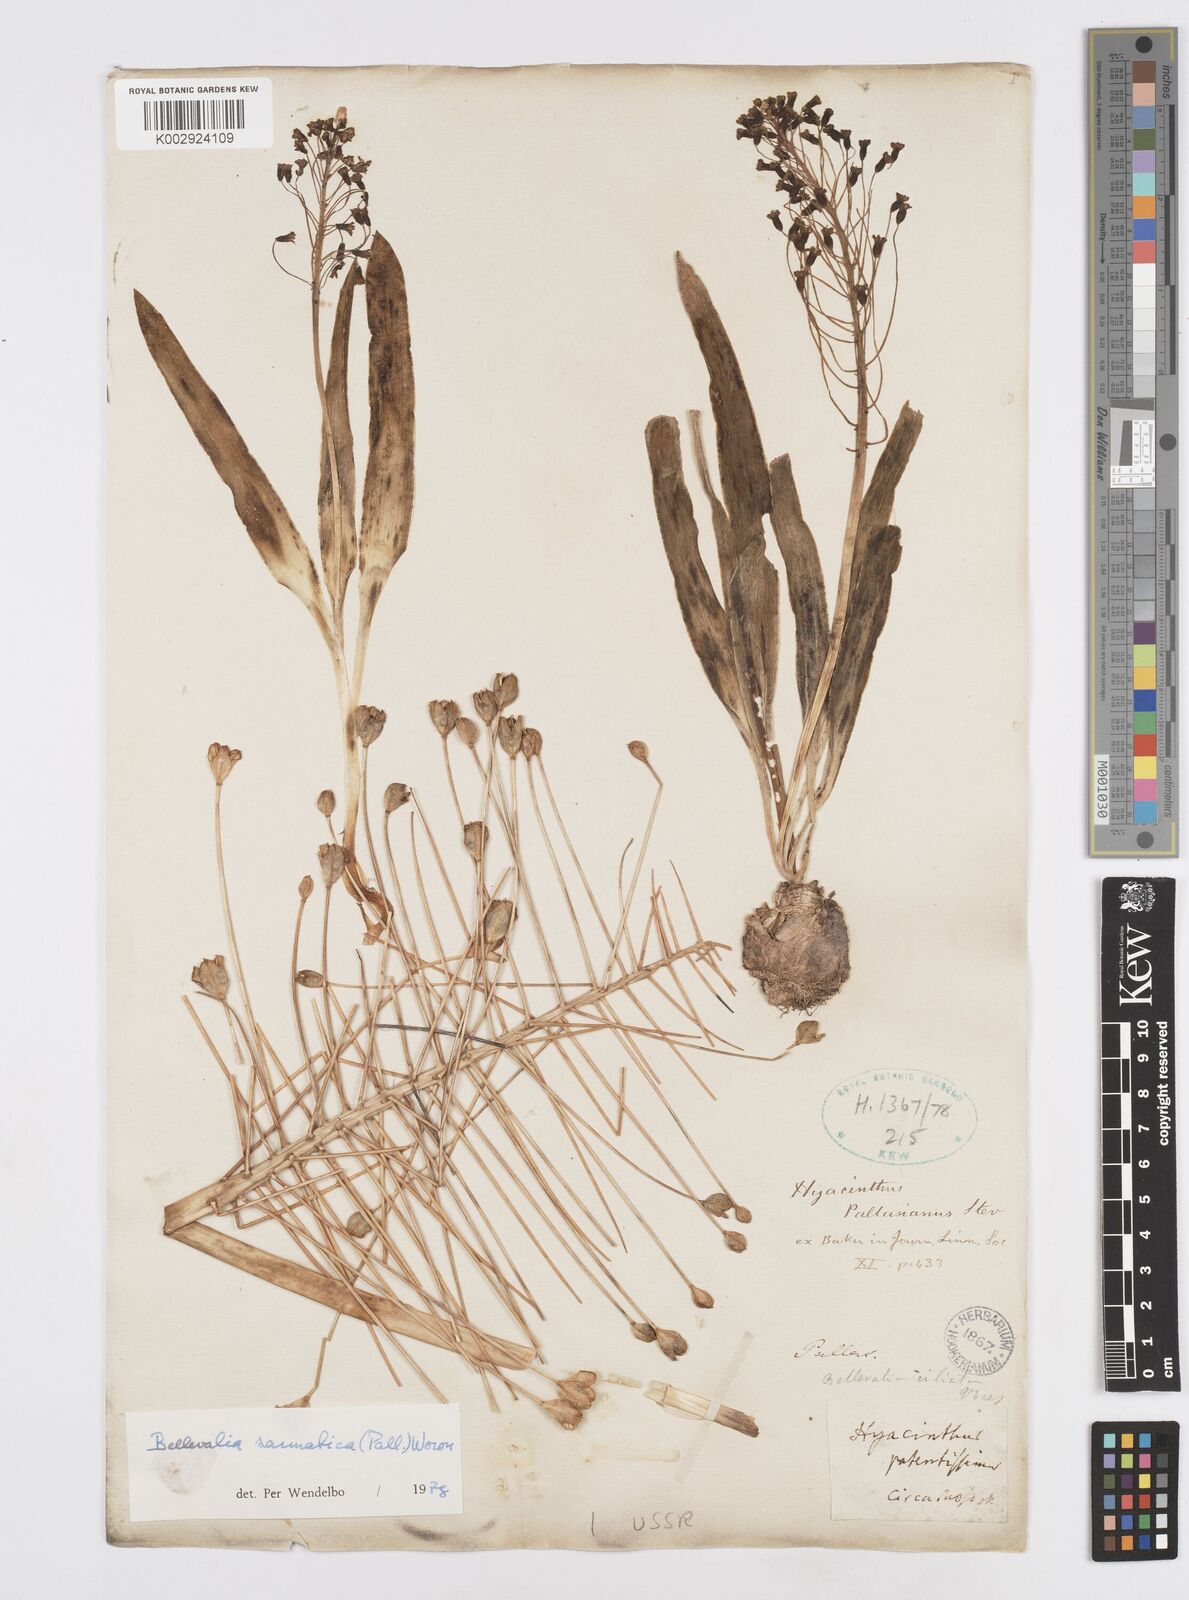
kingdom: Plantae
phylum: Tracheophyta
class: Liliopsida
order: Asparagales
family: Asparagaceae
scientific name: Asparagaceae
